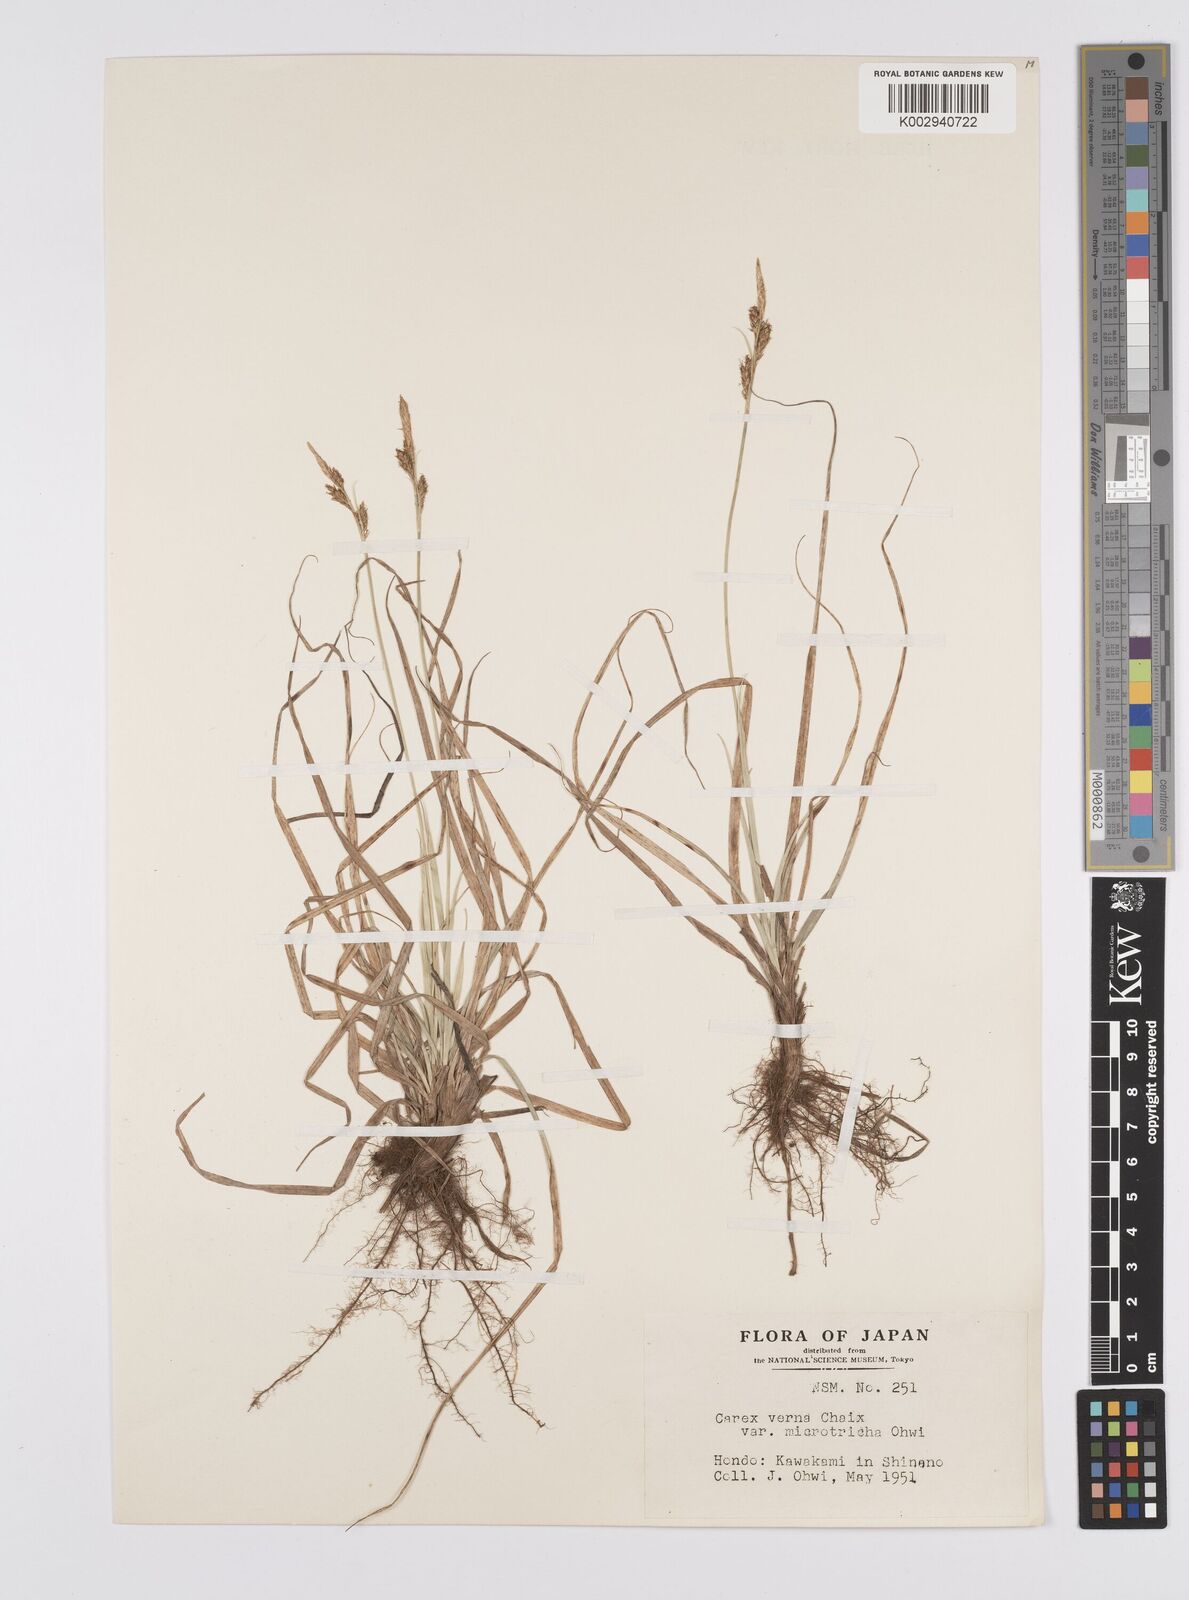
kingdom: Plantae
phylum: Tracheophyta
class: Liliopsida
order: Poales
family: Cyperaceae
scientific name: Cyperaceae
